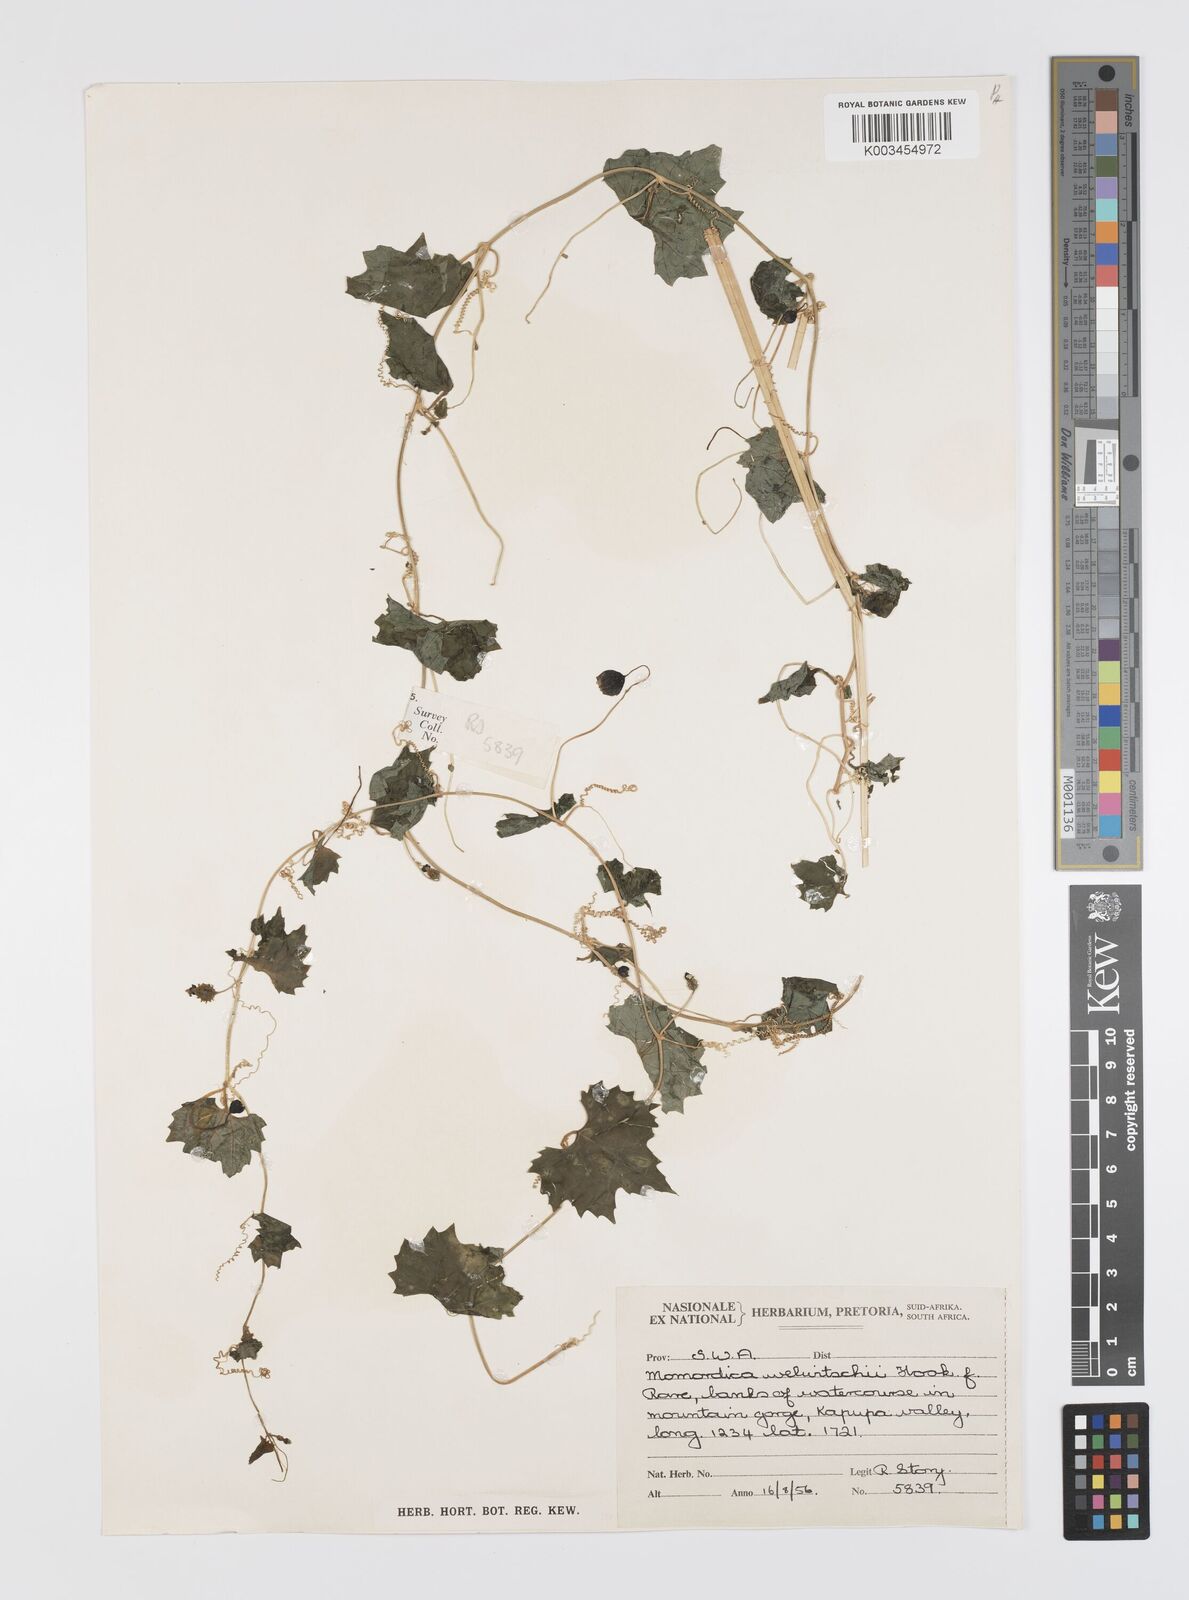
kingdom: Plantae
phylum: Tracheophyta
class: Magnoliopsida
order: Cucurbitales
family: Cucurbitaceae
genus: Momordica
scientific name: Momordica welwitschii
